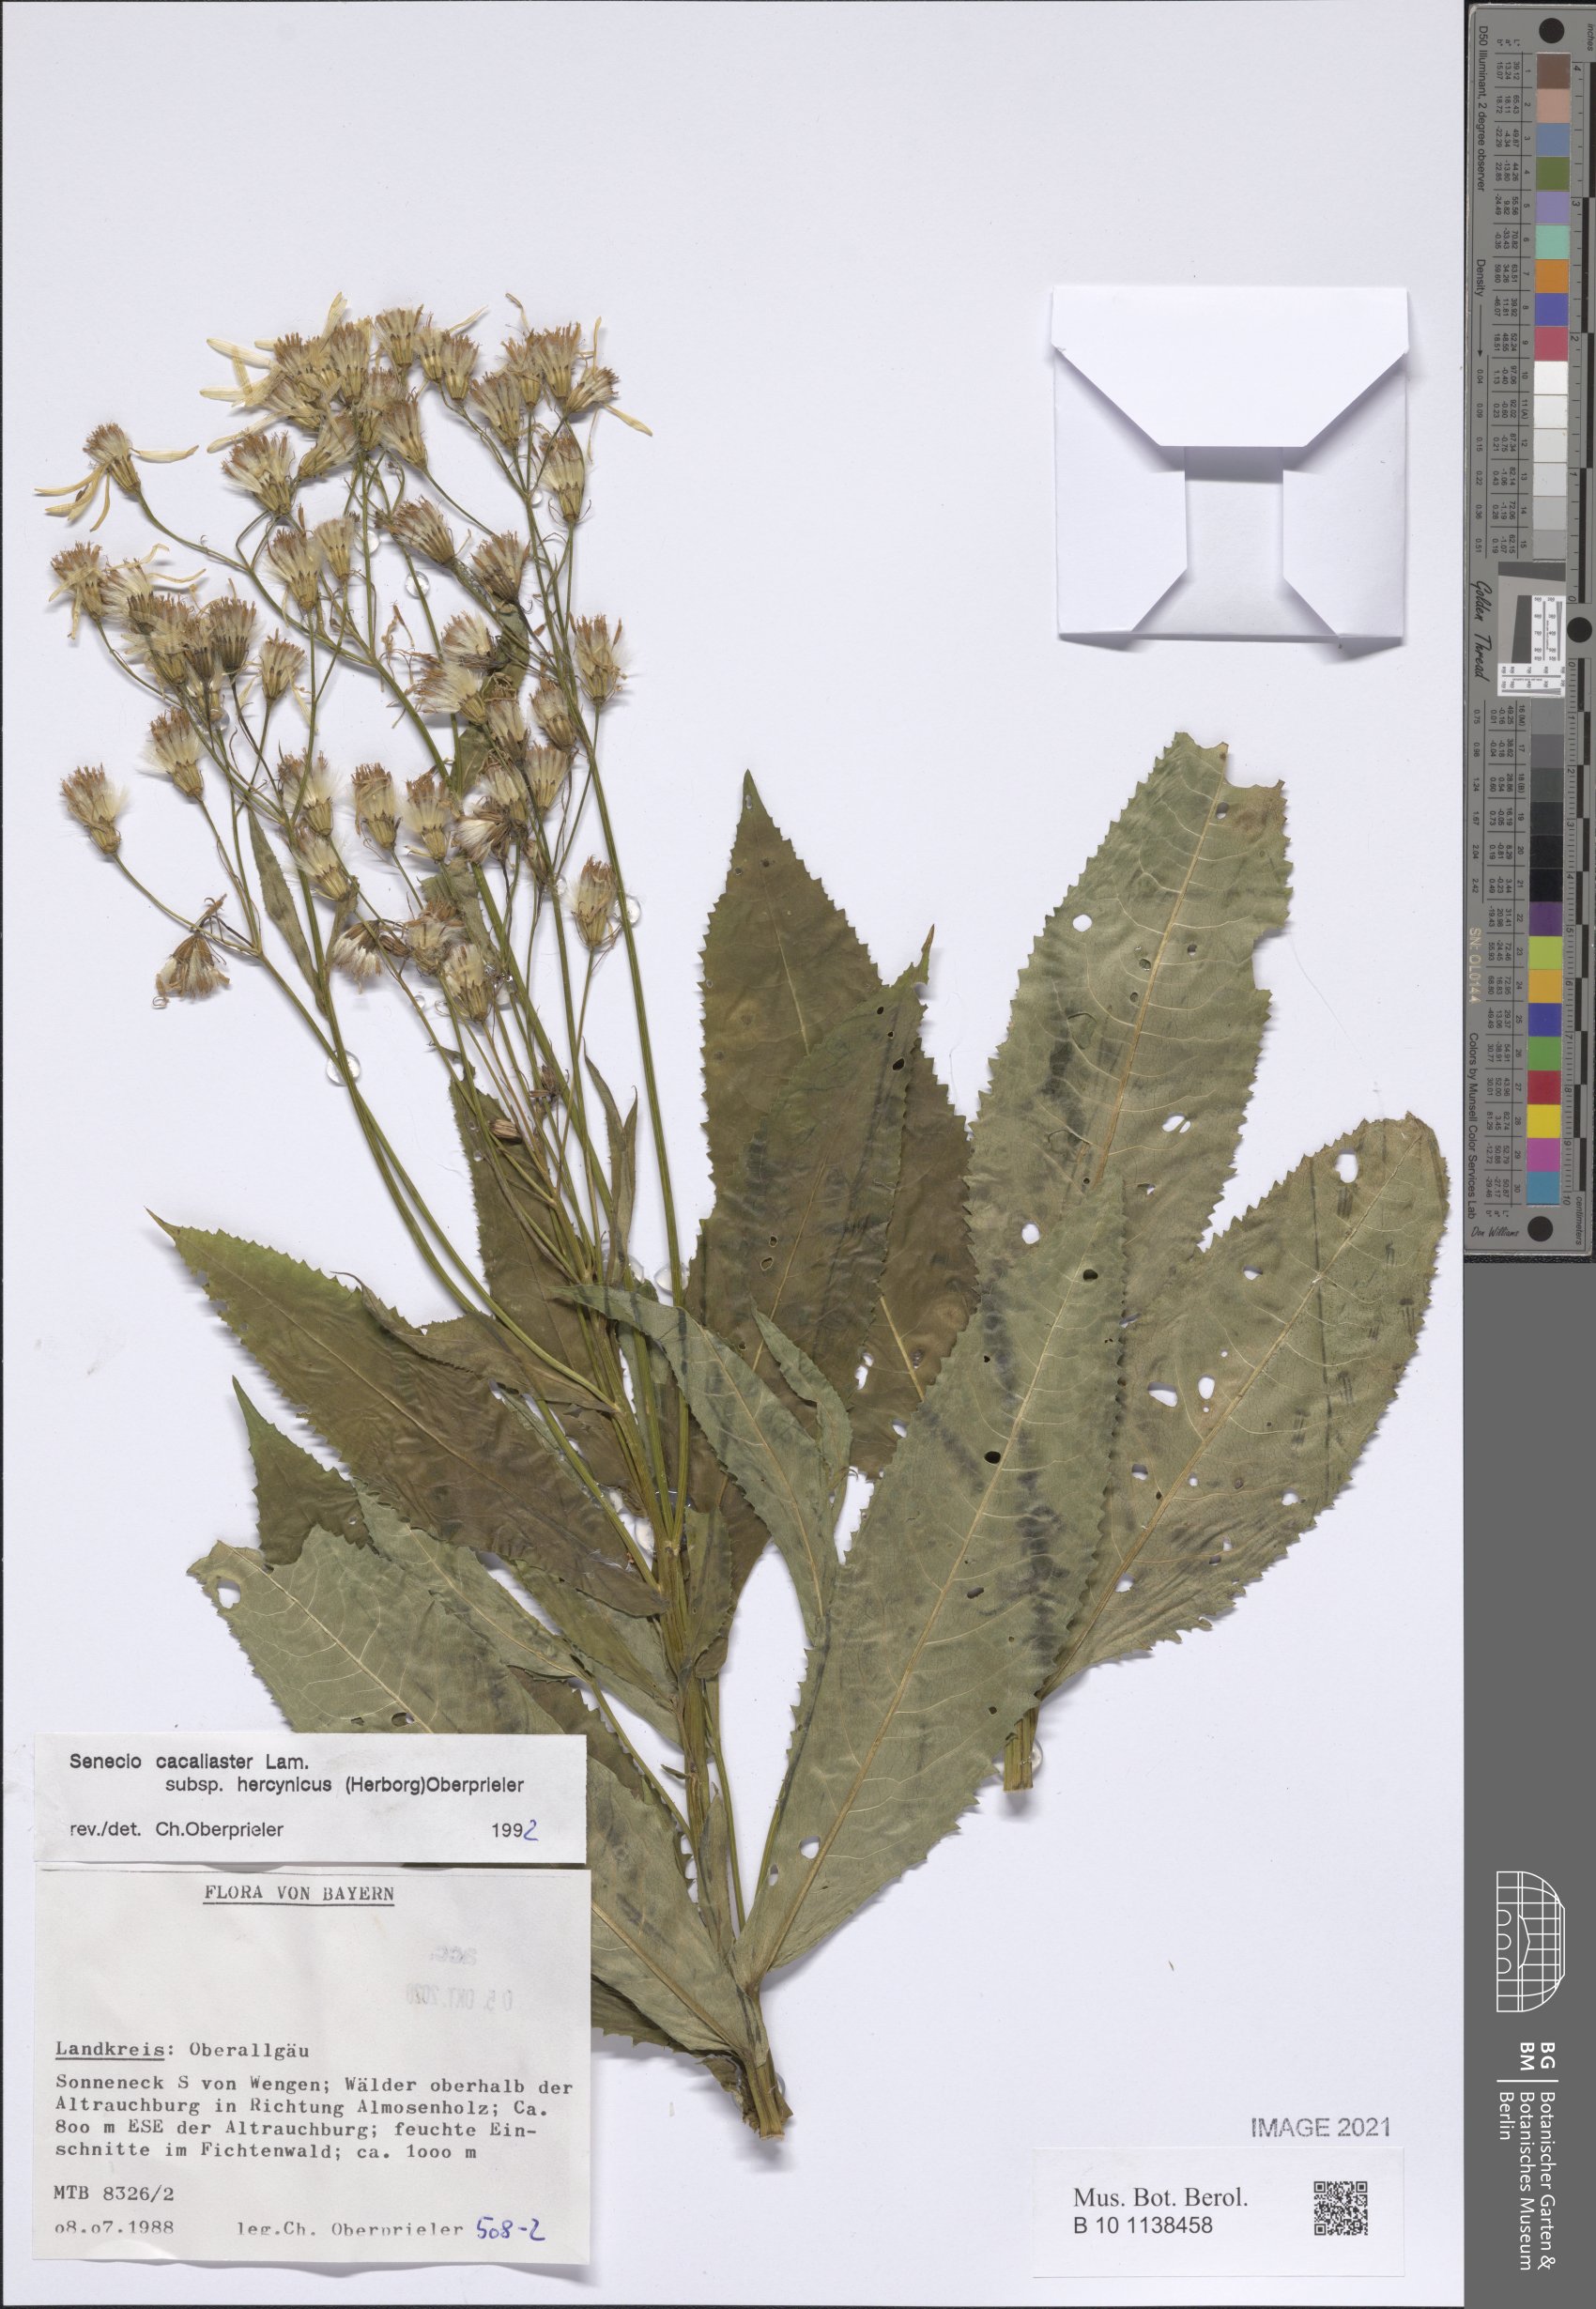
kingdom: Plantae
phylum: Tracheophyta
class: Magnoliopsida
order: Asterales
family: Asteraceae
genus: Senecio
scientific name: Senecio hercynicus
